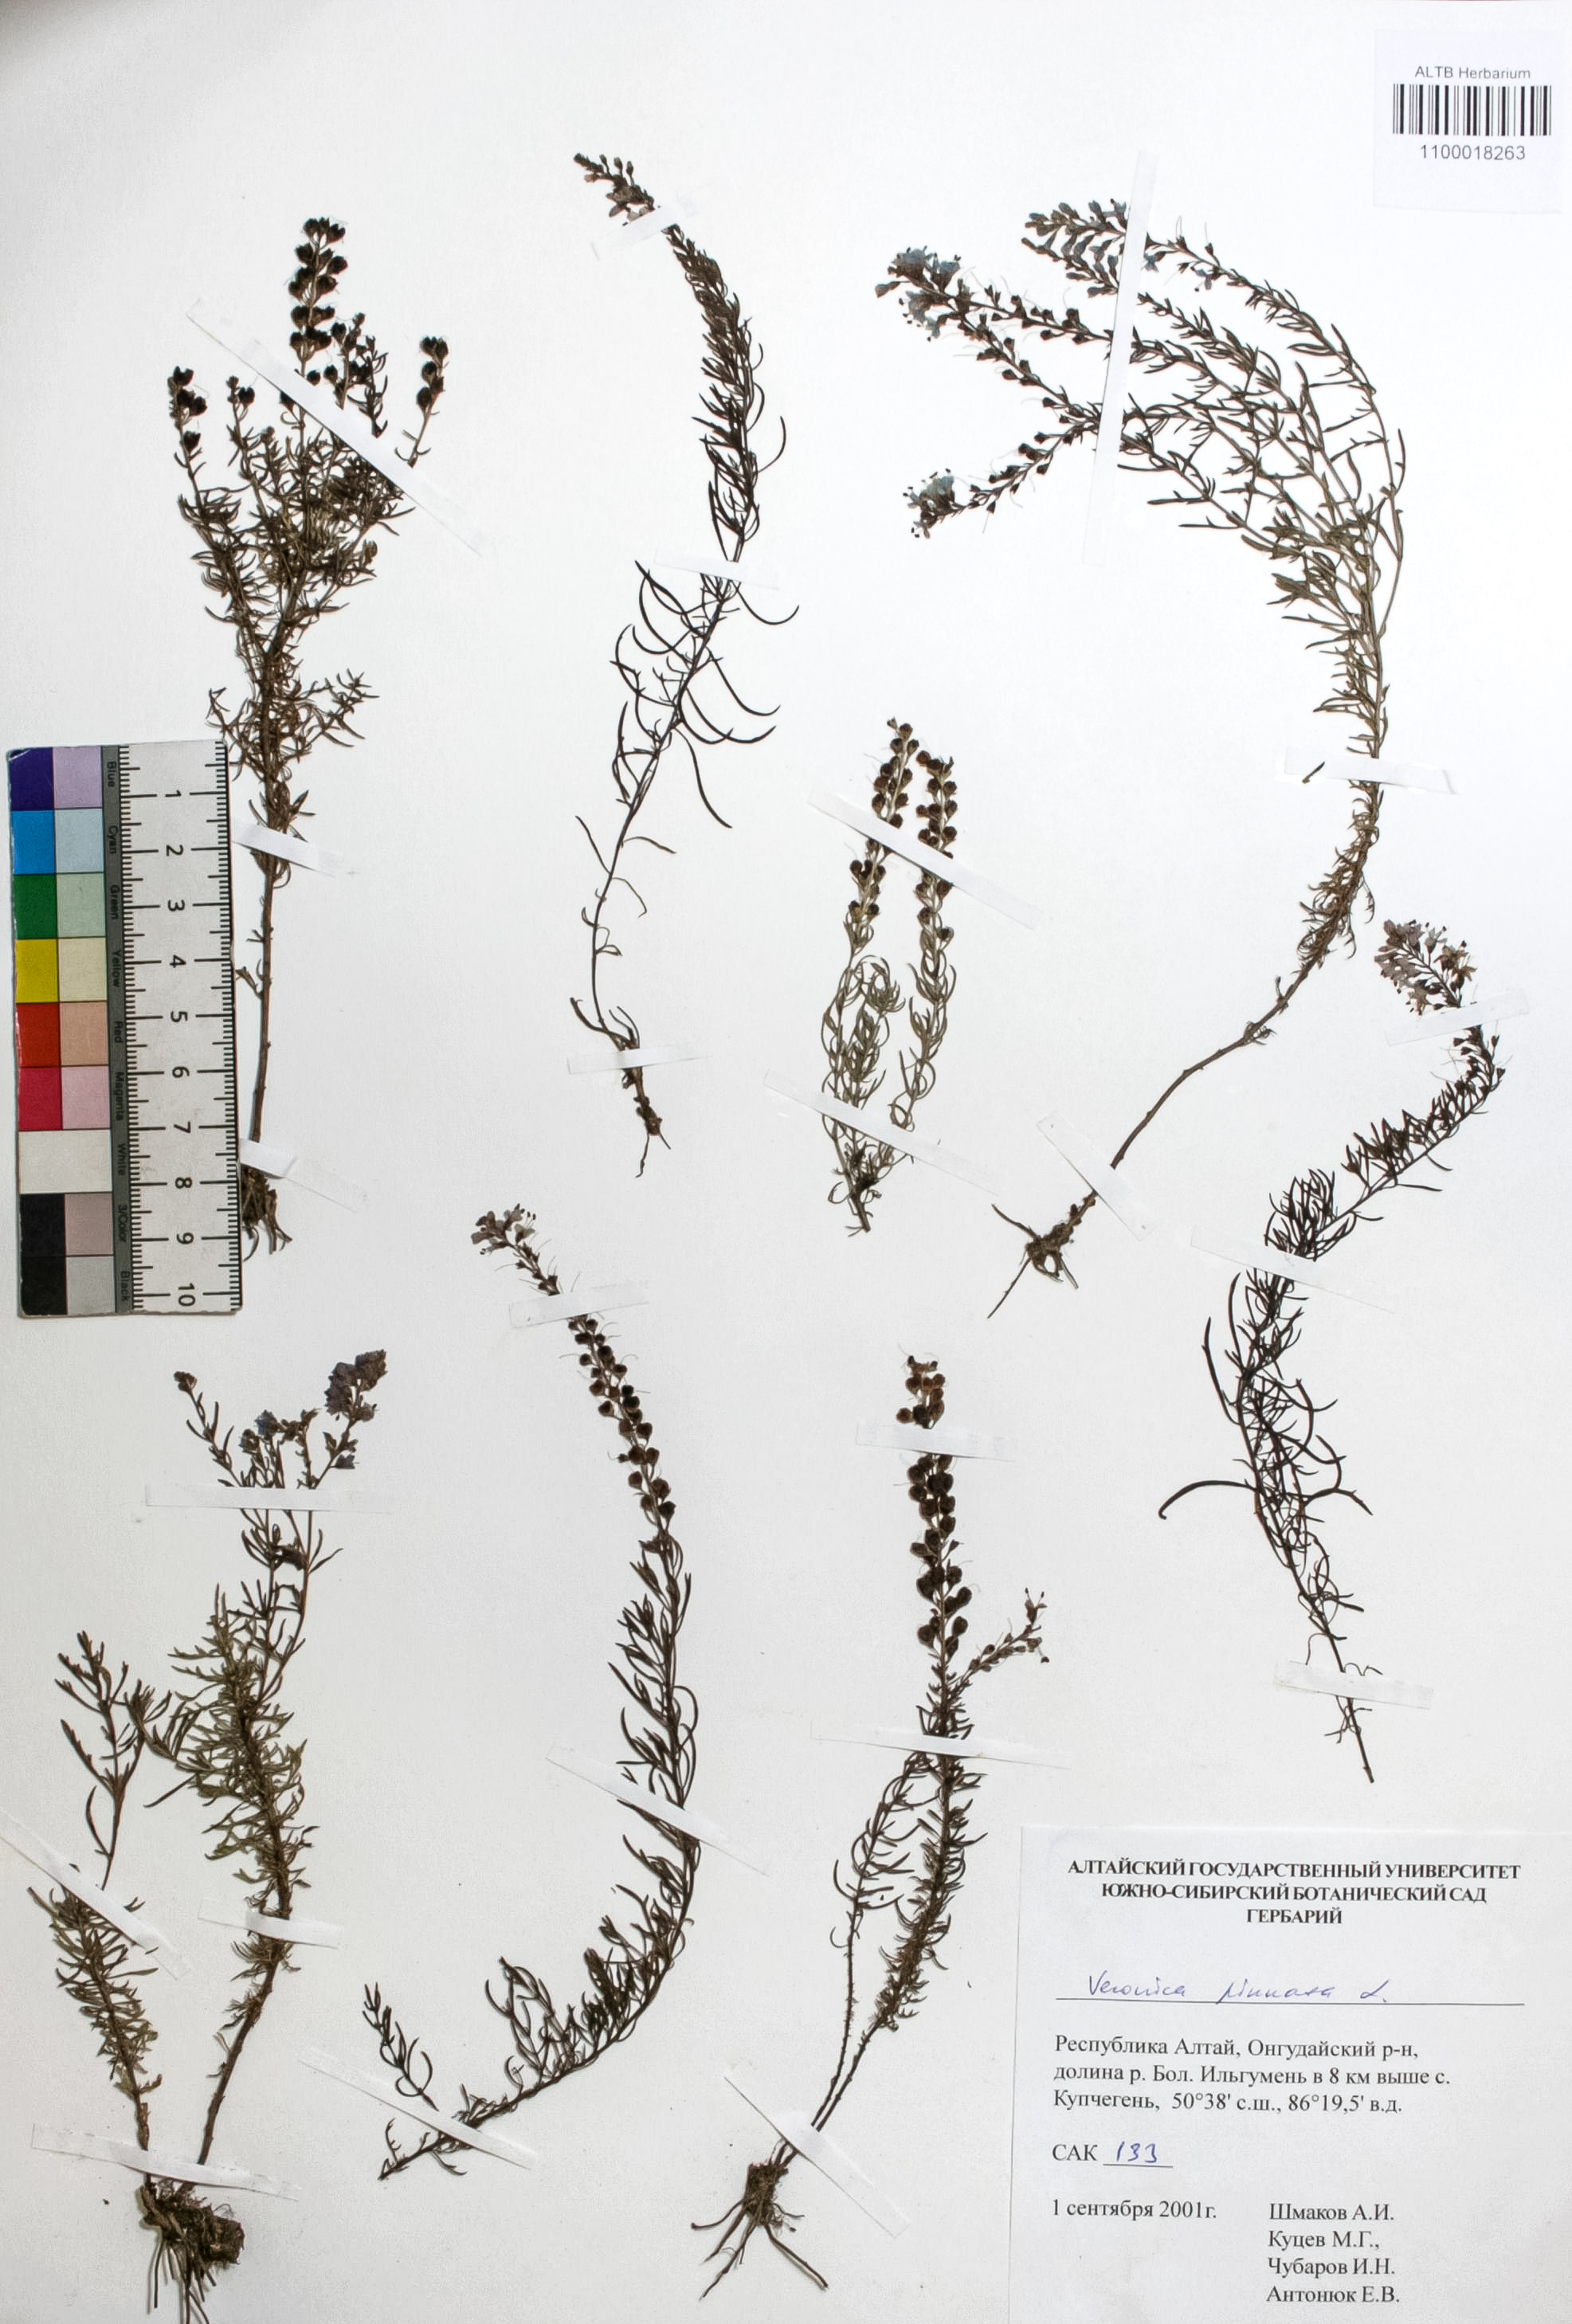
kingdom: Plantae
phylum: Tracheophyta
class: Magnoliopsida
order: Lamiales
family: Plantaginaceae
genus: Veronica
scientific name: Veronica pinnata
